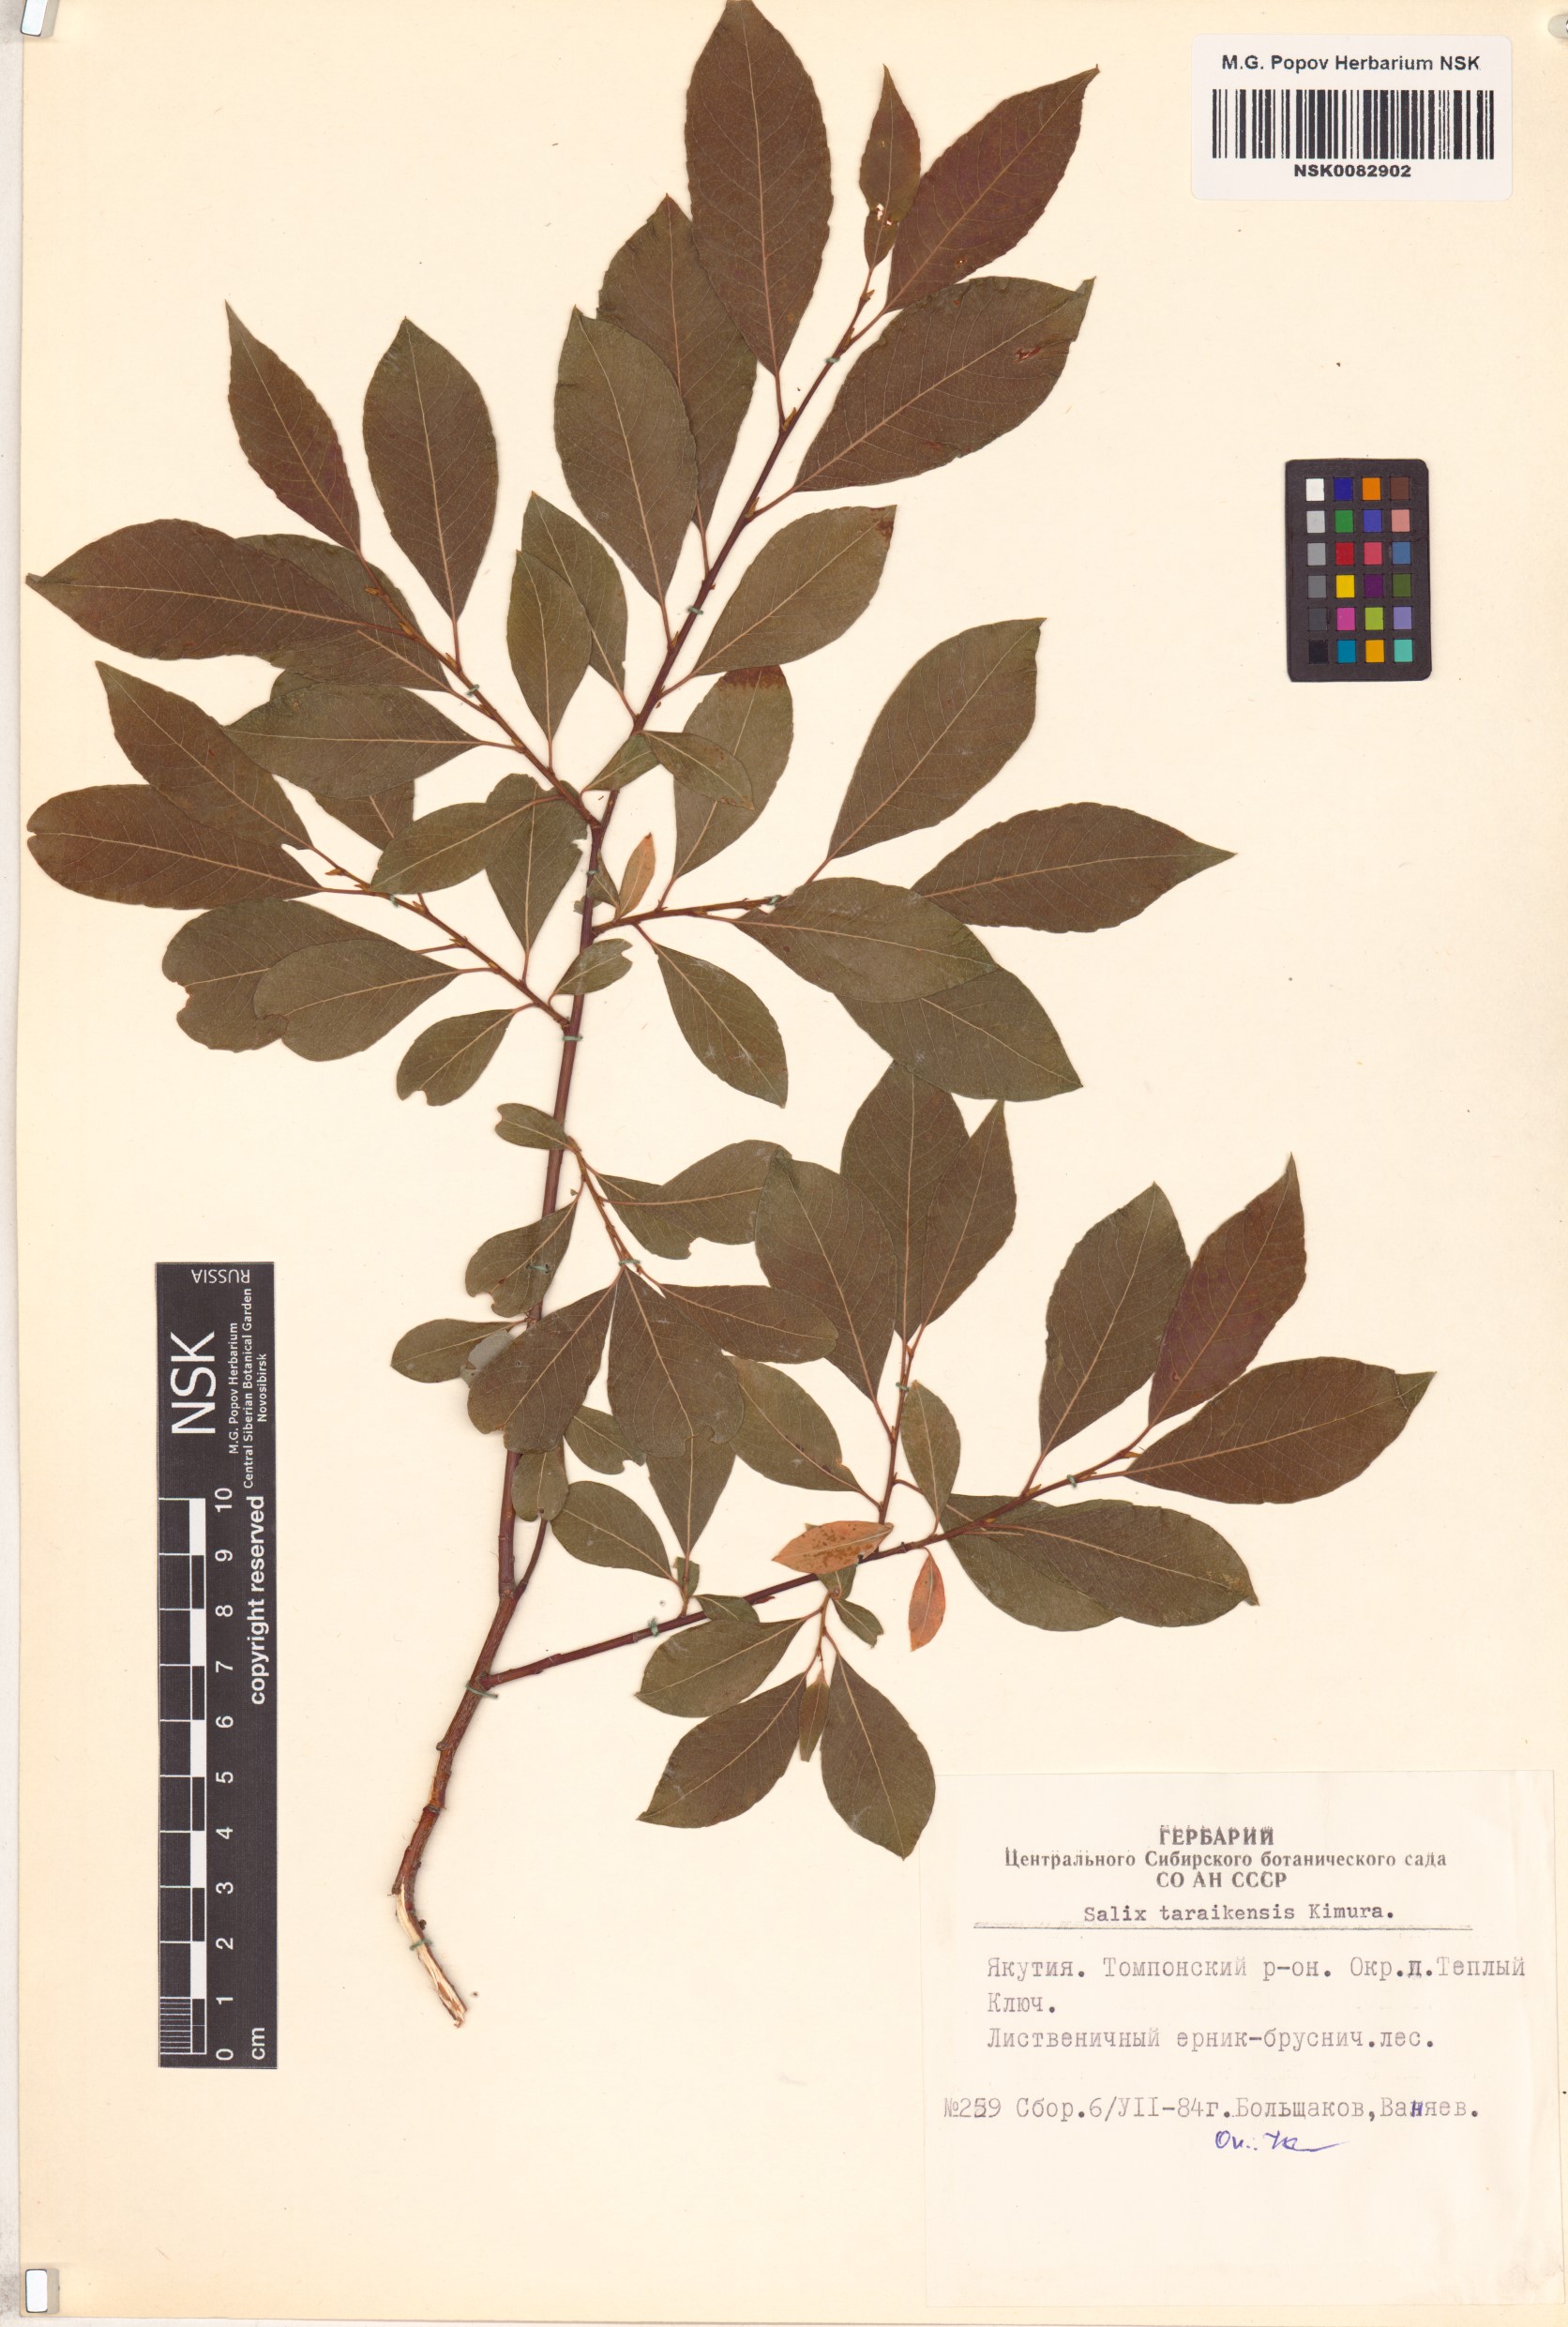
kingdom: Plantae
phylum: Tracheophyta
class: Magnoliopsida
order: Malpighiales
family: Salicaceae
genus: Salix
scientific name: Salix taraikensis
